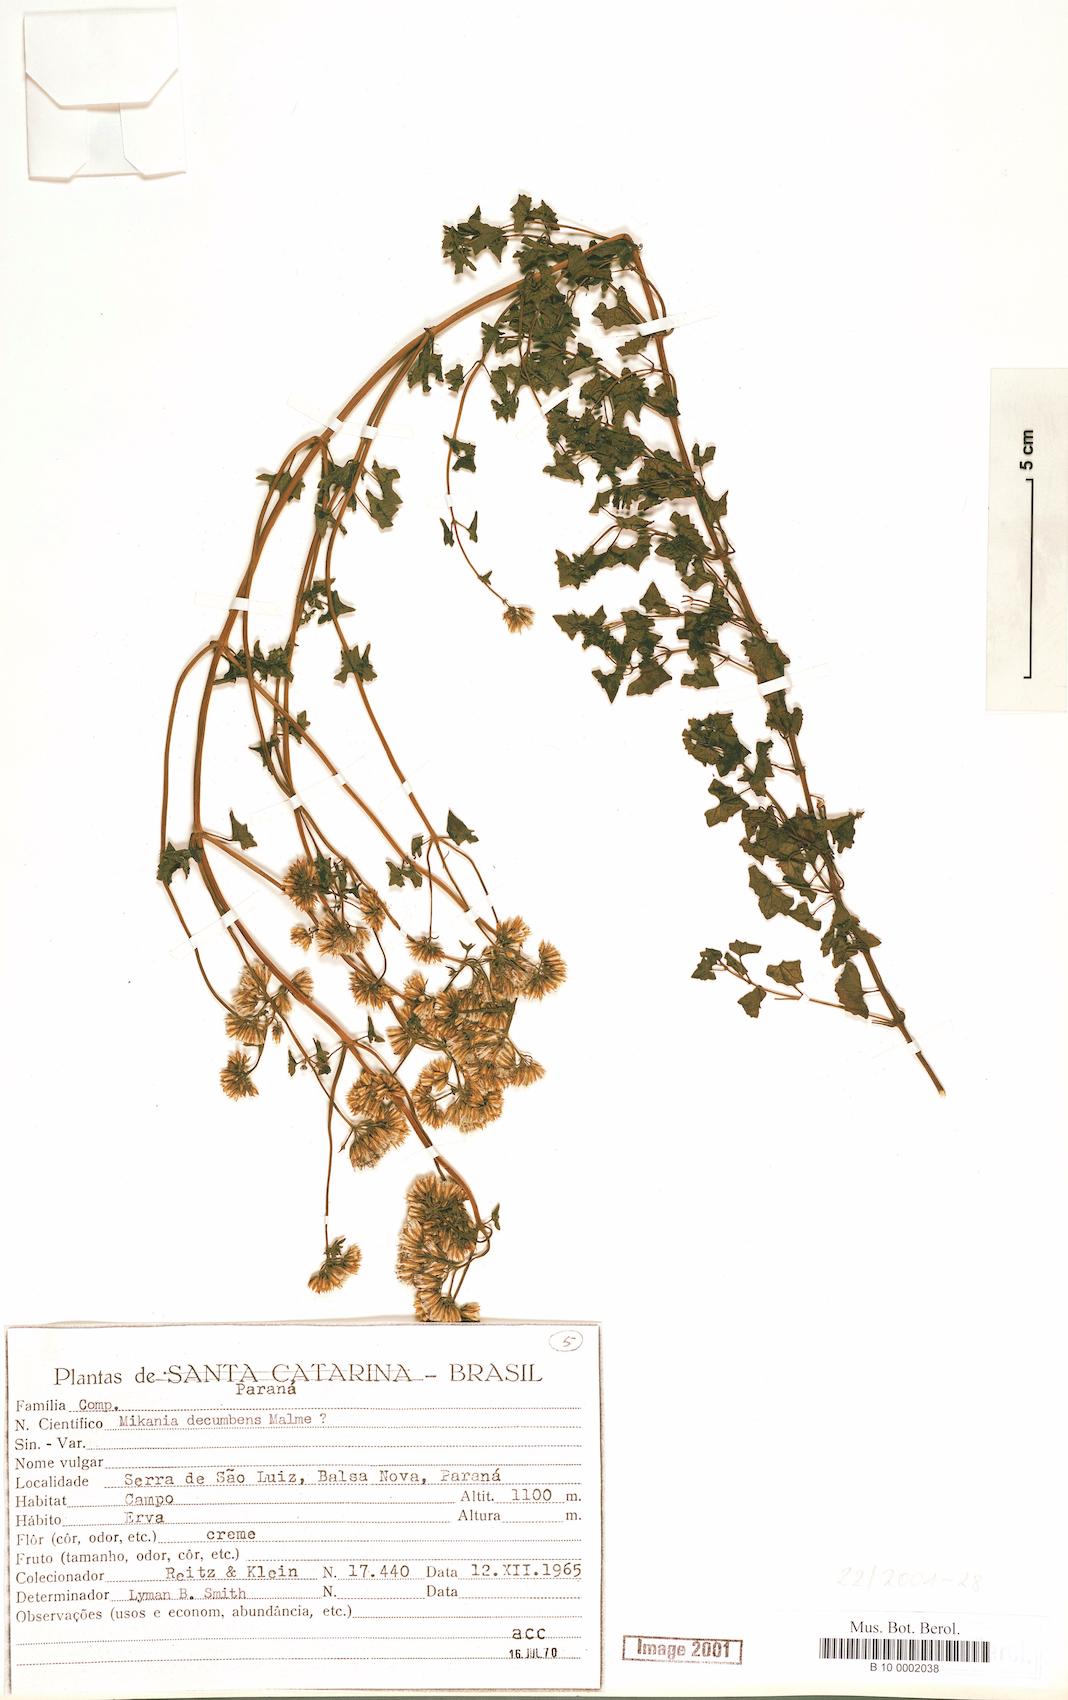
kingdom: Plantae
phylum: Tracheophyta
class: Magnoliopsida
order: Asterales
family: Asteraceae
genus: Mikania
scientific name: Mikania decumbens
